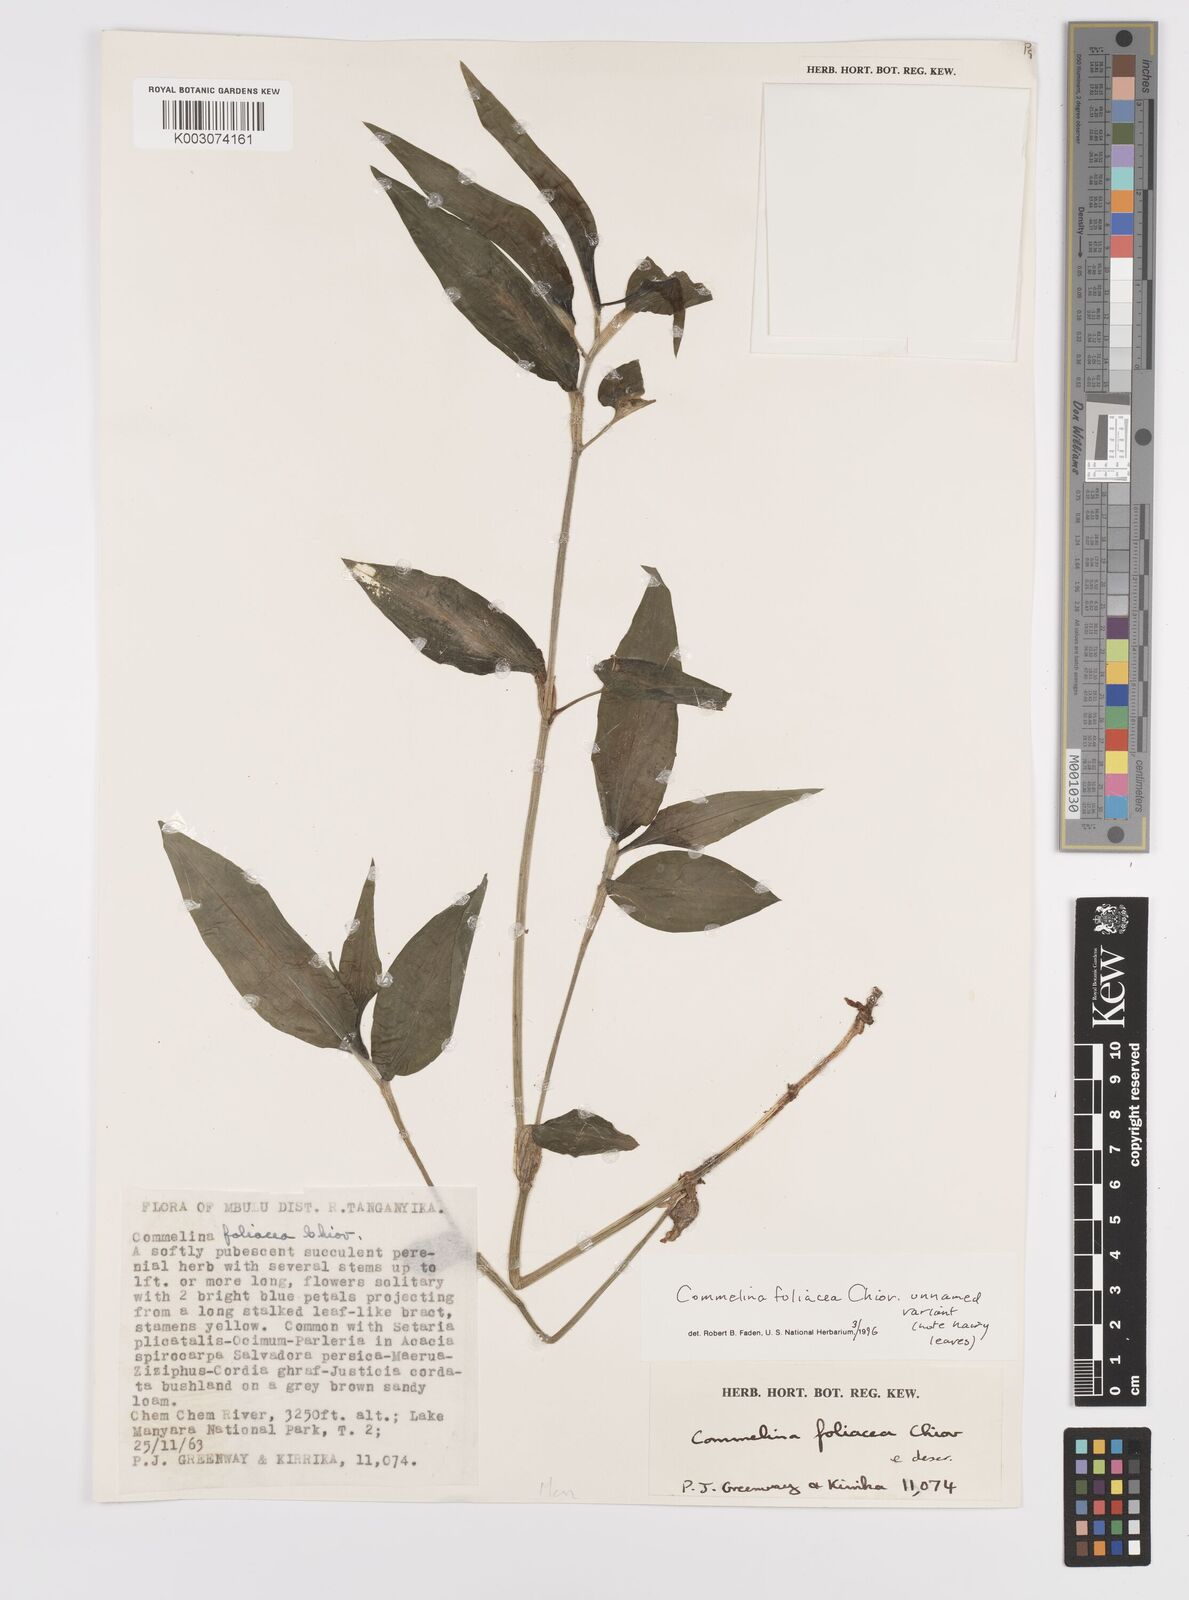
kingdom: Plantae
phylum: Tracheophyta
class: Liliopsida
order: Commelinales
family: Commelinaceae
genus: Commelina
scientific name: Commelina foliacea
